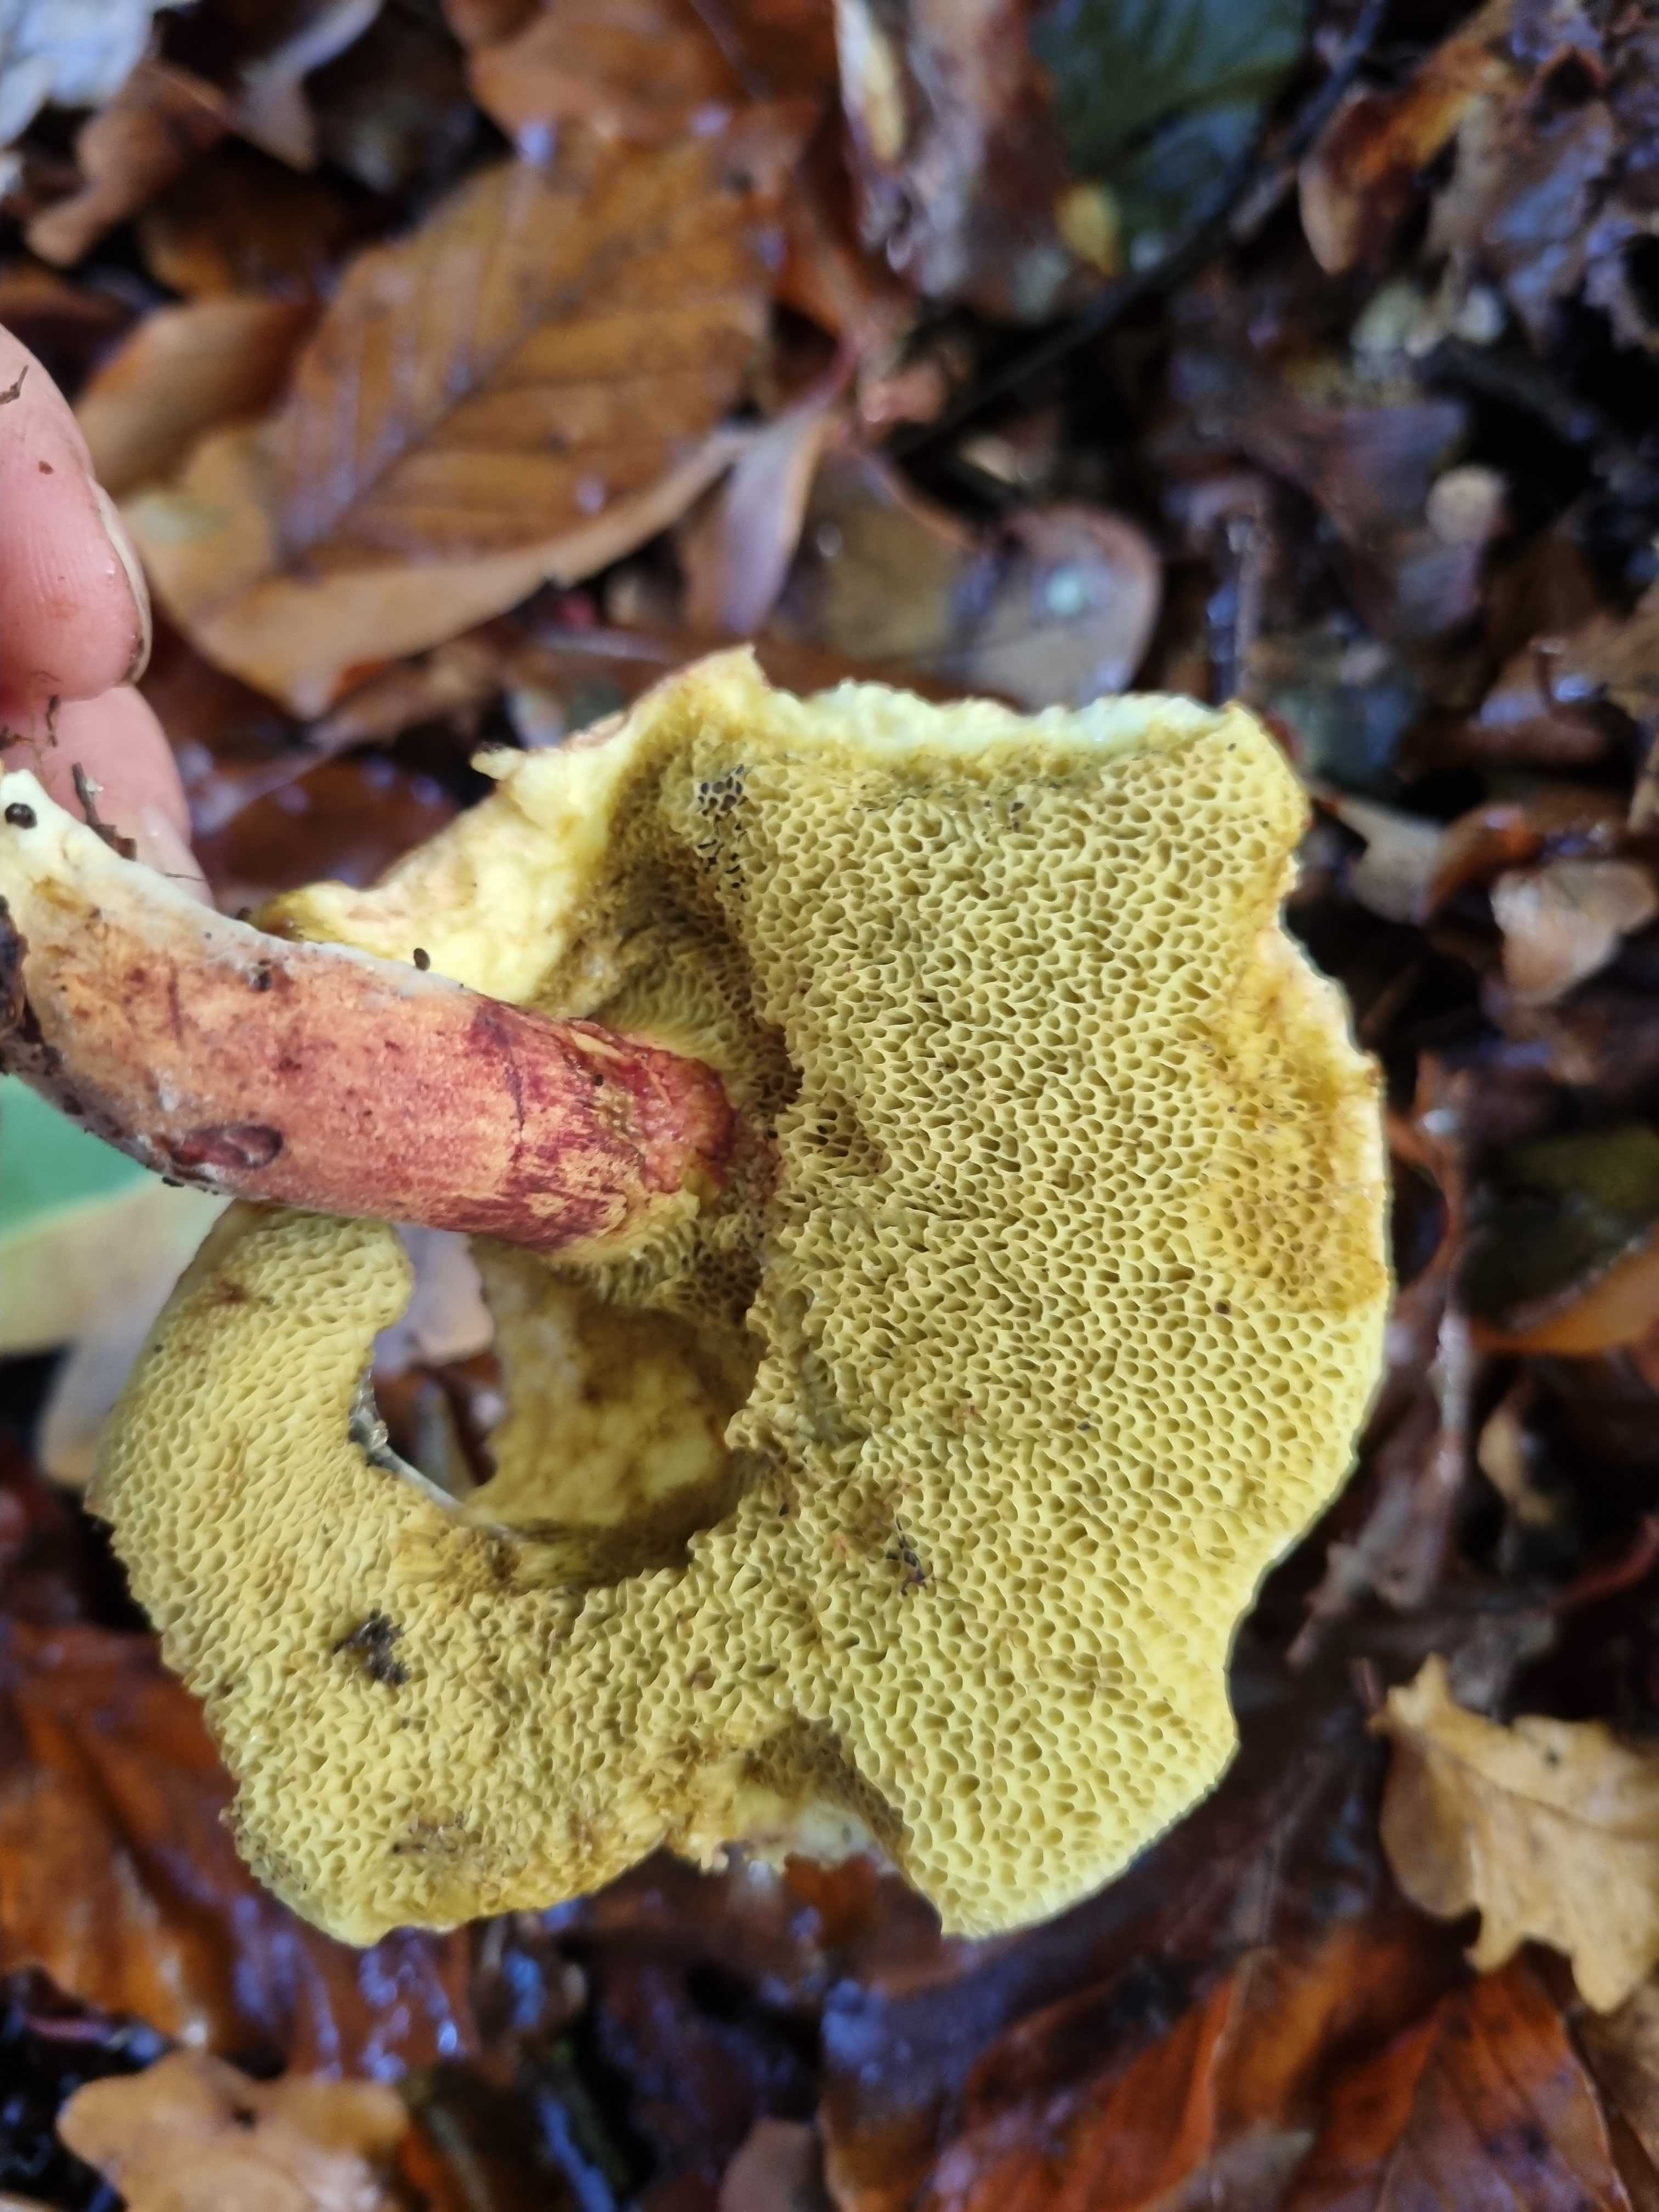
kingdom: Fungi
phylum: Basidiomycota
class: Agaricomycetes
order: Boletales
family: Boletaceae
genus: Xerocomellus
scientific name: Xerocomellus cisalpinus
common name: finsprukken rørhat
